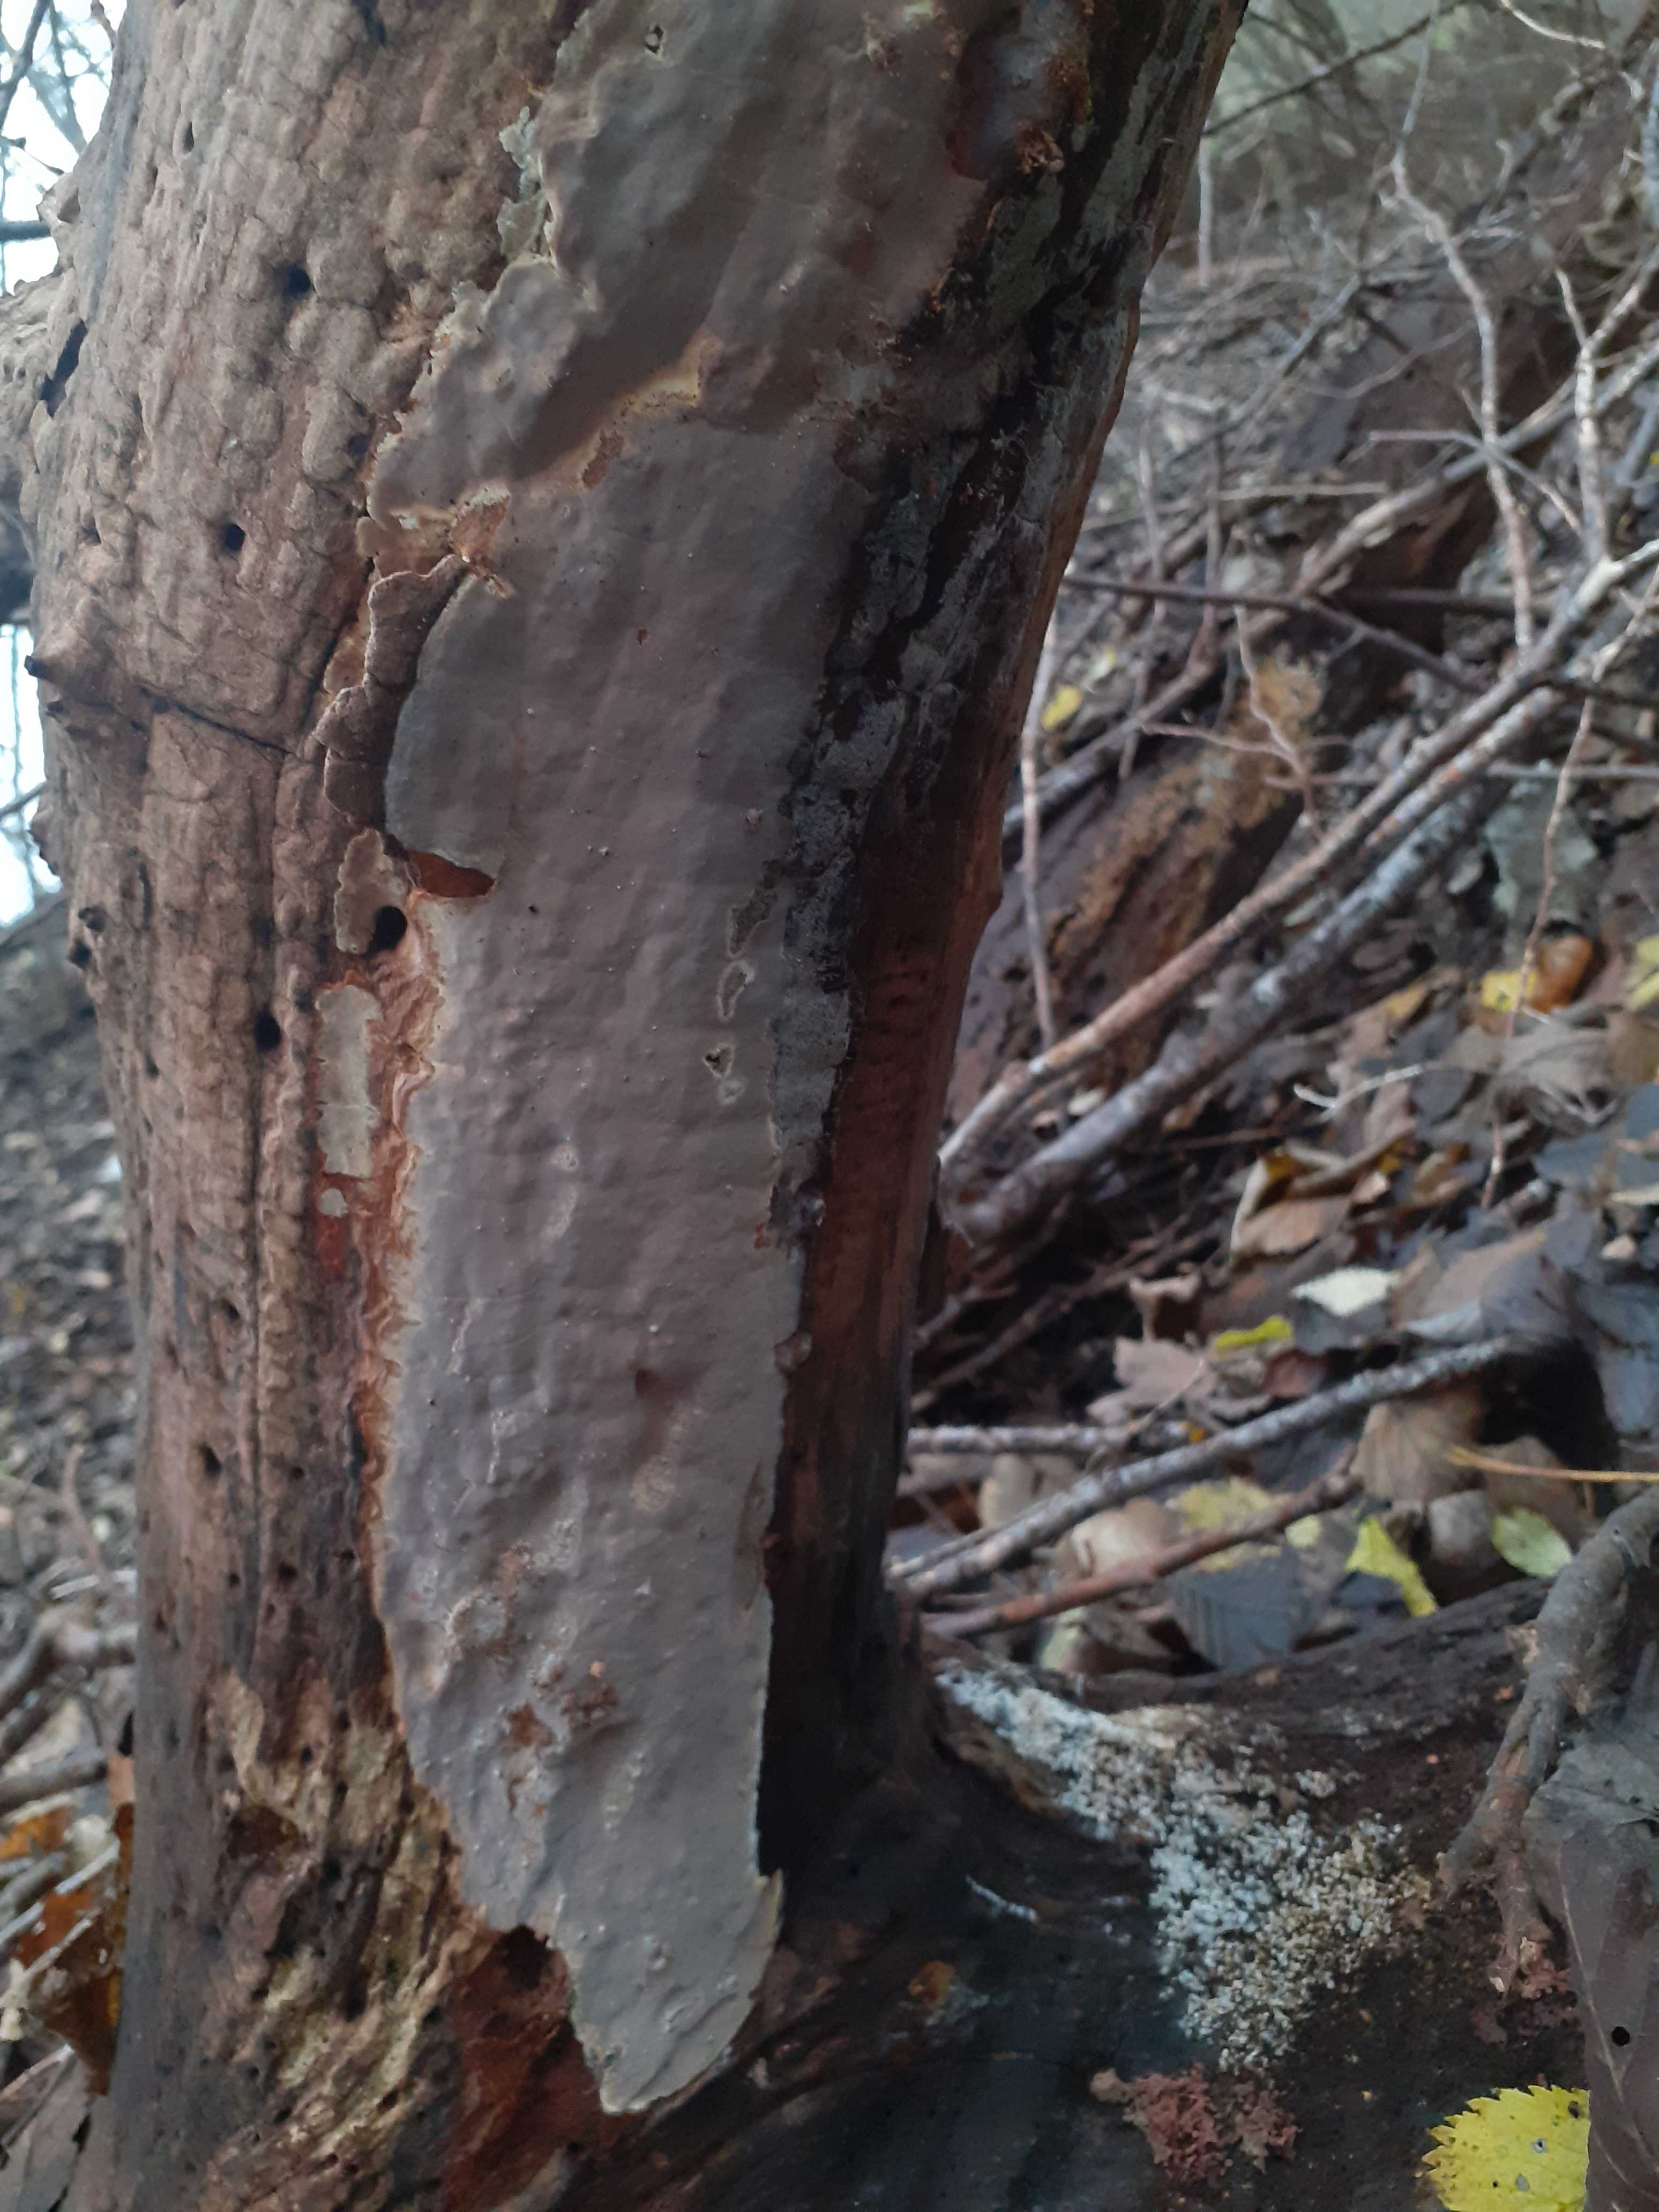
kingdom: Fungi
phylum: Basidiomycota
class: Agaricomycetes
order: Russulales
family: Peniophoraceae
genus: Scytinostroma
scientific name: Scytinostroma hemidichophyticum
